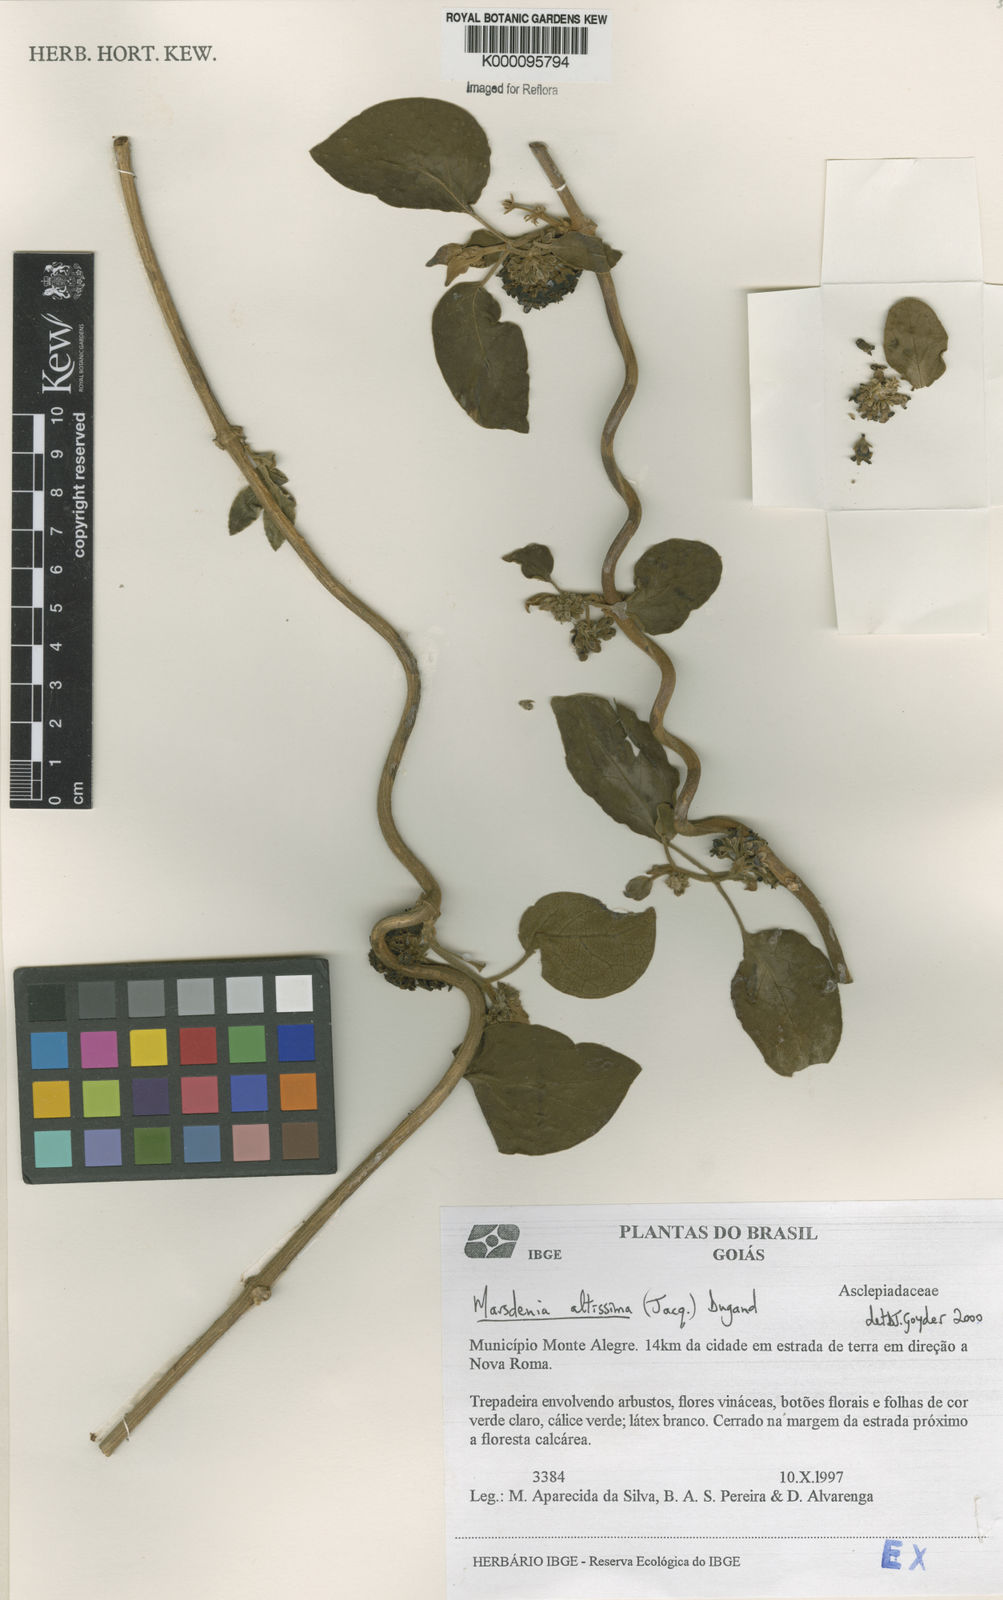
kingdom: Plantae
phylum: Tracheophyta
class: Magnoliopsida
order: Gentianales
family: Apocynaceae
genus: Ruehssia
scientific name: Ruehssia altissima
